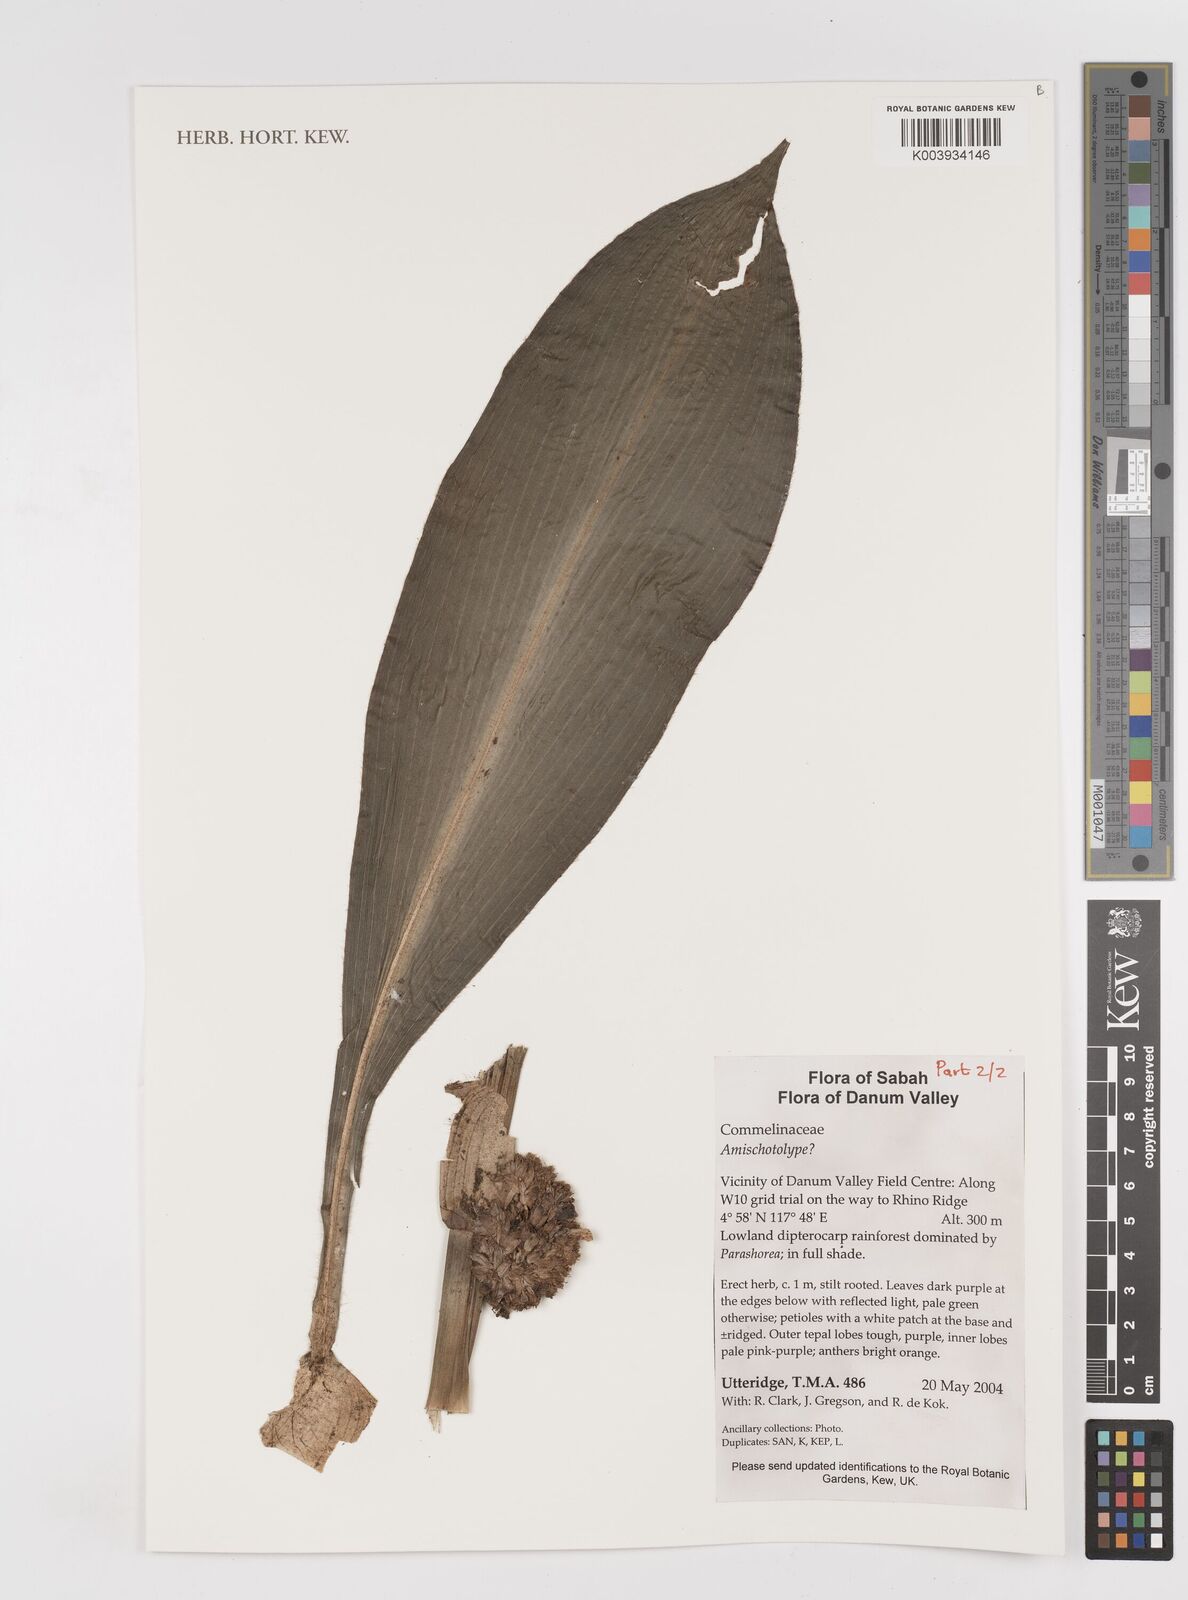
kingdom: Plantae
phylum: Tracheophyta
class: Liliopsida
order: Commelinales
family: Commelinaceae
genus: Amischotolype
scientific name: Amischotolype
